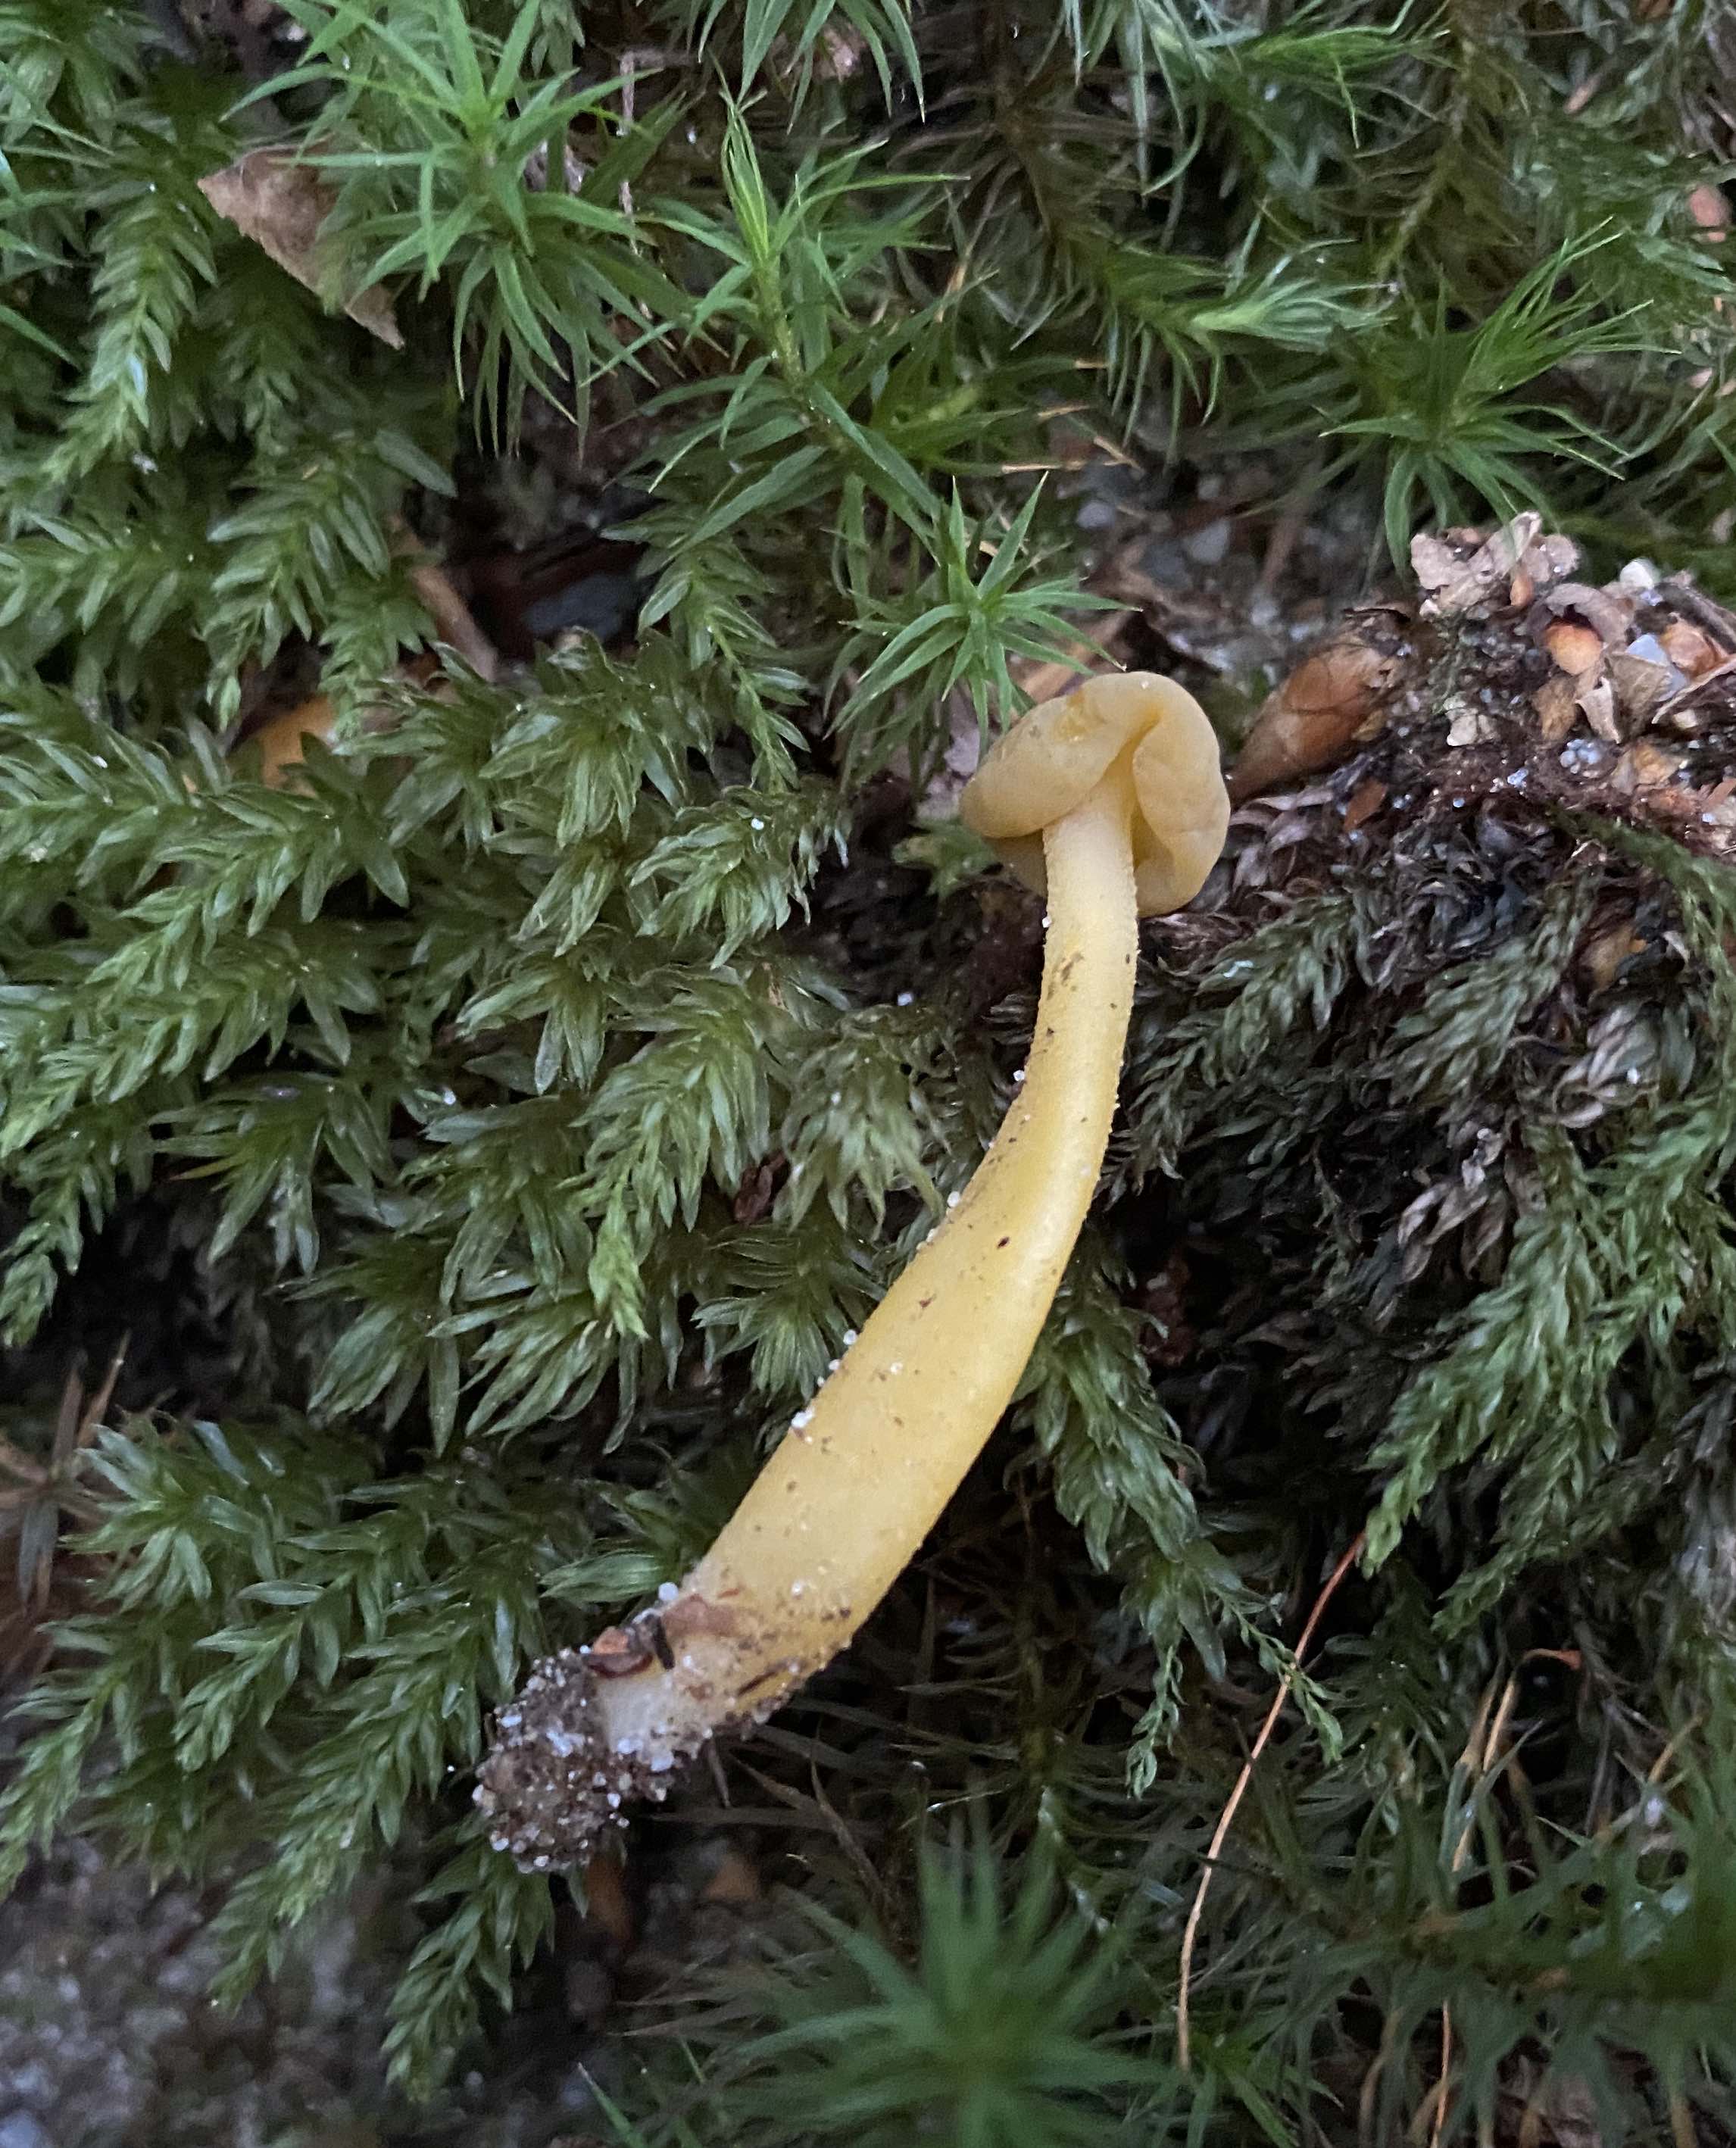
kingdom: Fungi
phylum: Ascomycota
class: Leotiomycetes
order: Leotiales
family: Leotiaceae
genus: Leotia
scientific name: Leotia lubrica
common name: ravsvamp
